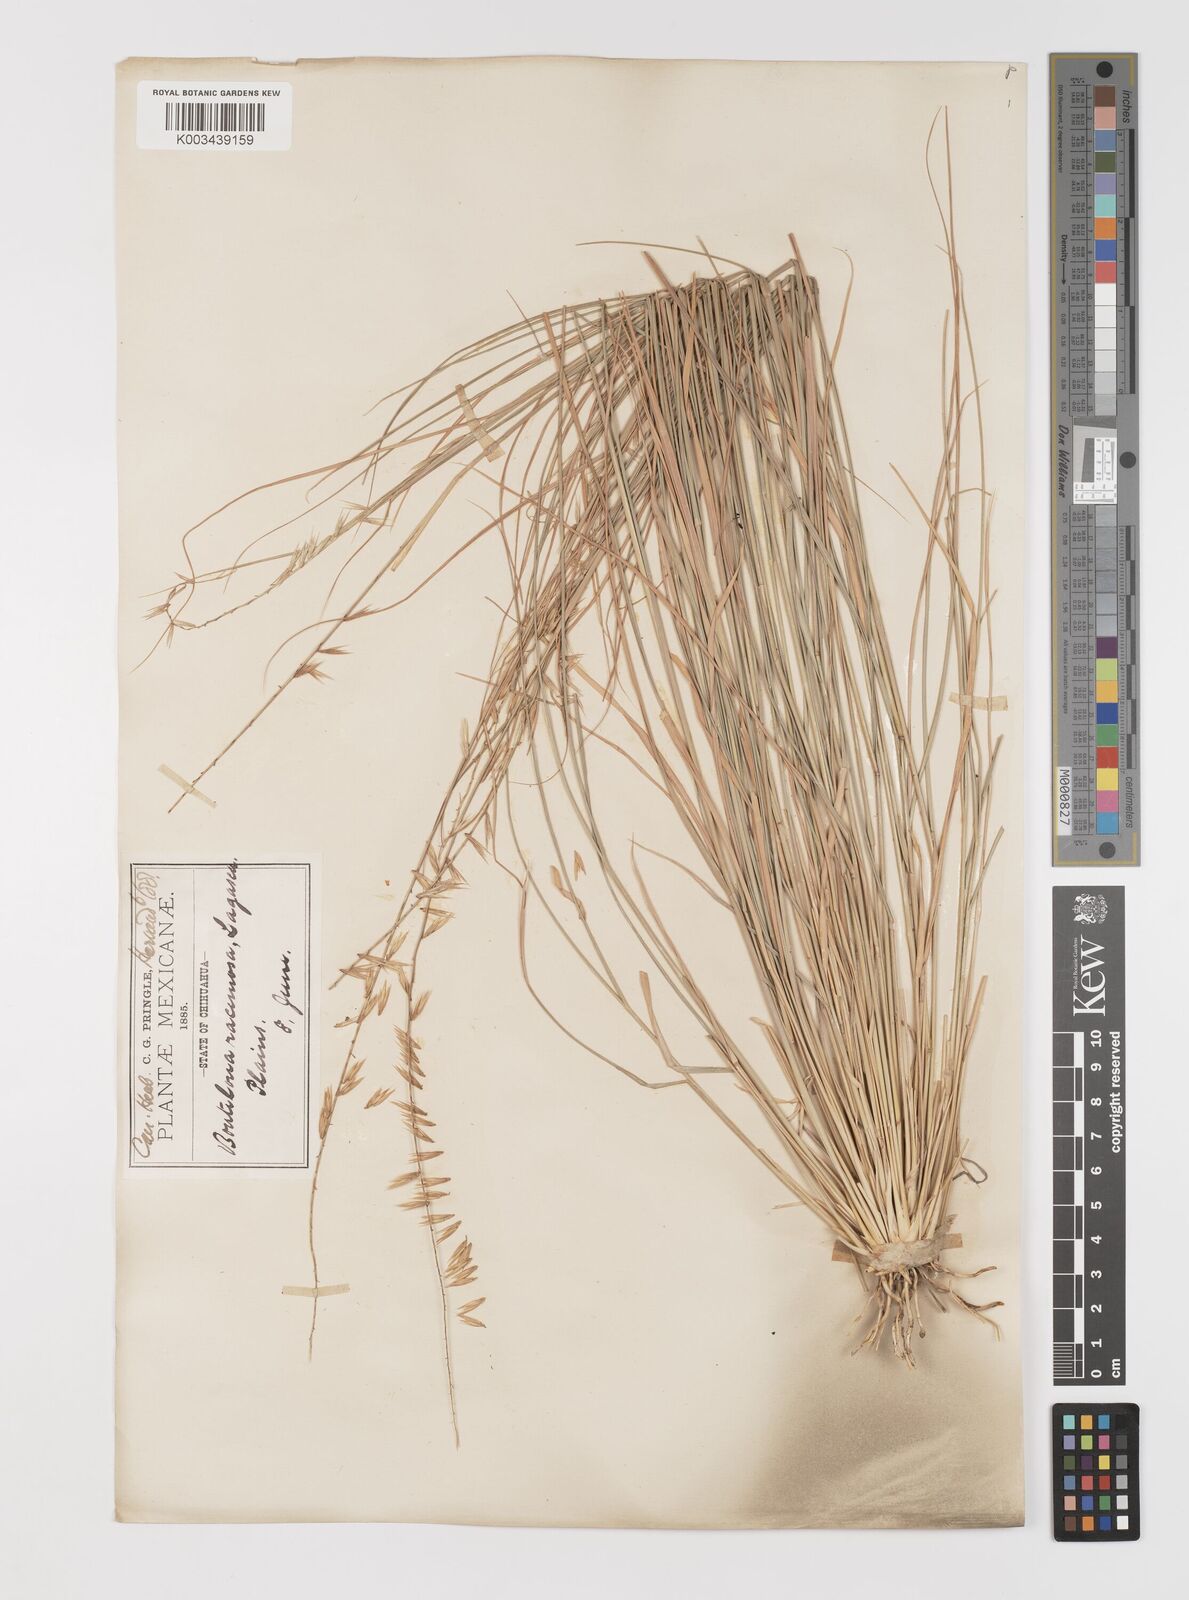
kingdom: Plantae
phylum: Tracheophyta
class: Liliopsida
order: Poales
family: Poaceae
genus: Bouteloua
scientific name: Bouteloua curtipendula
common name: Side-oats grama
